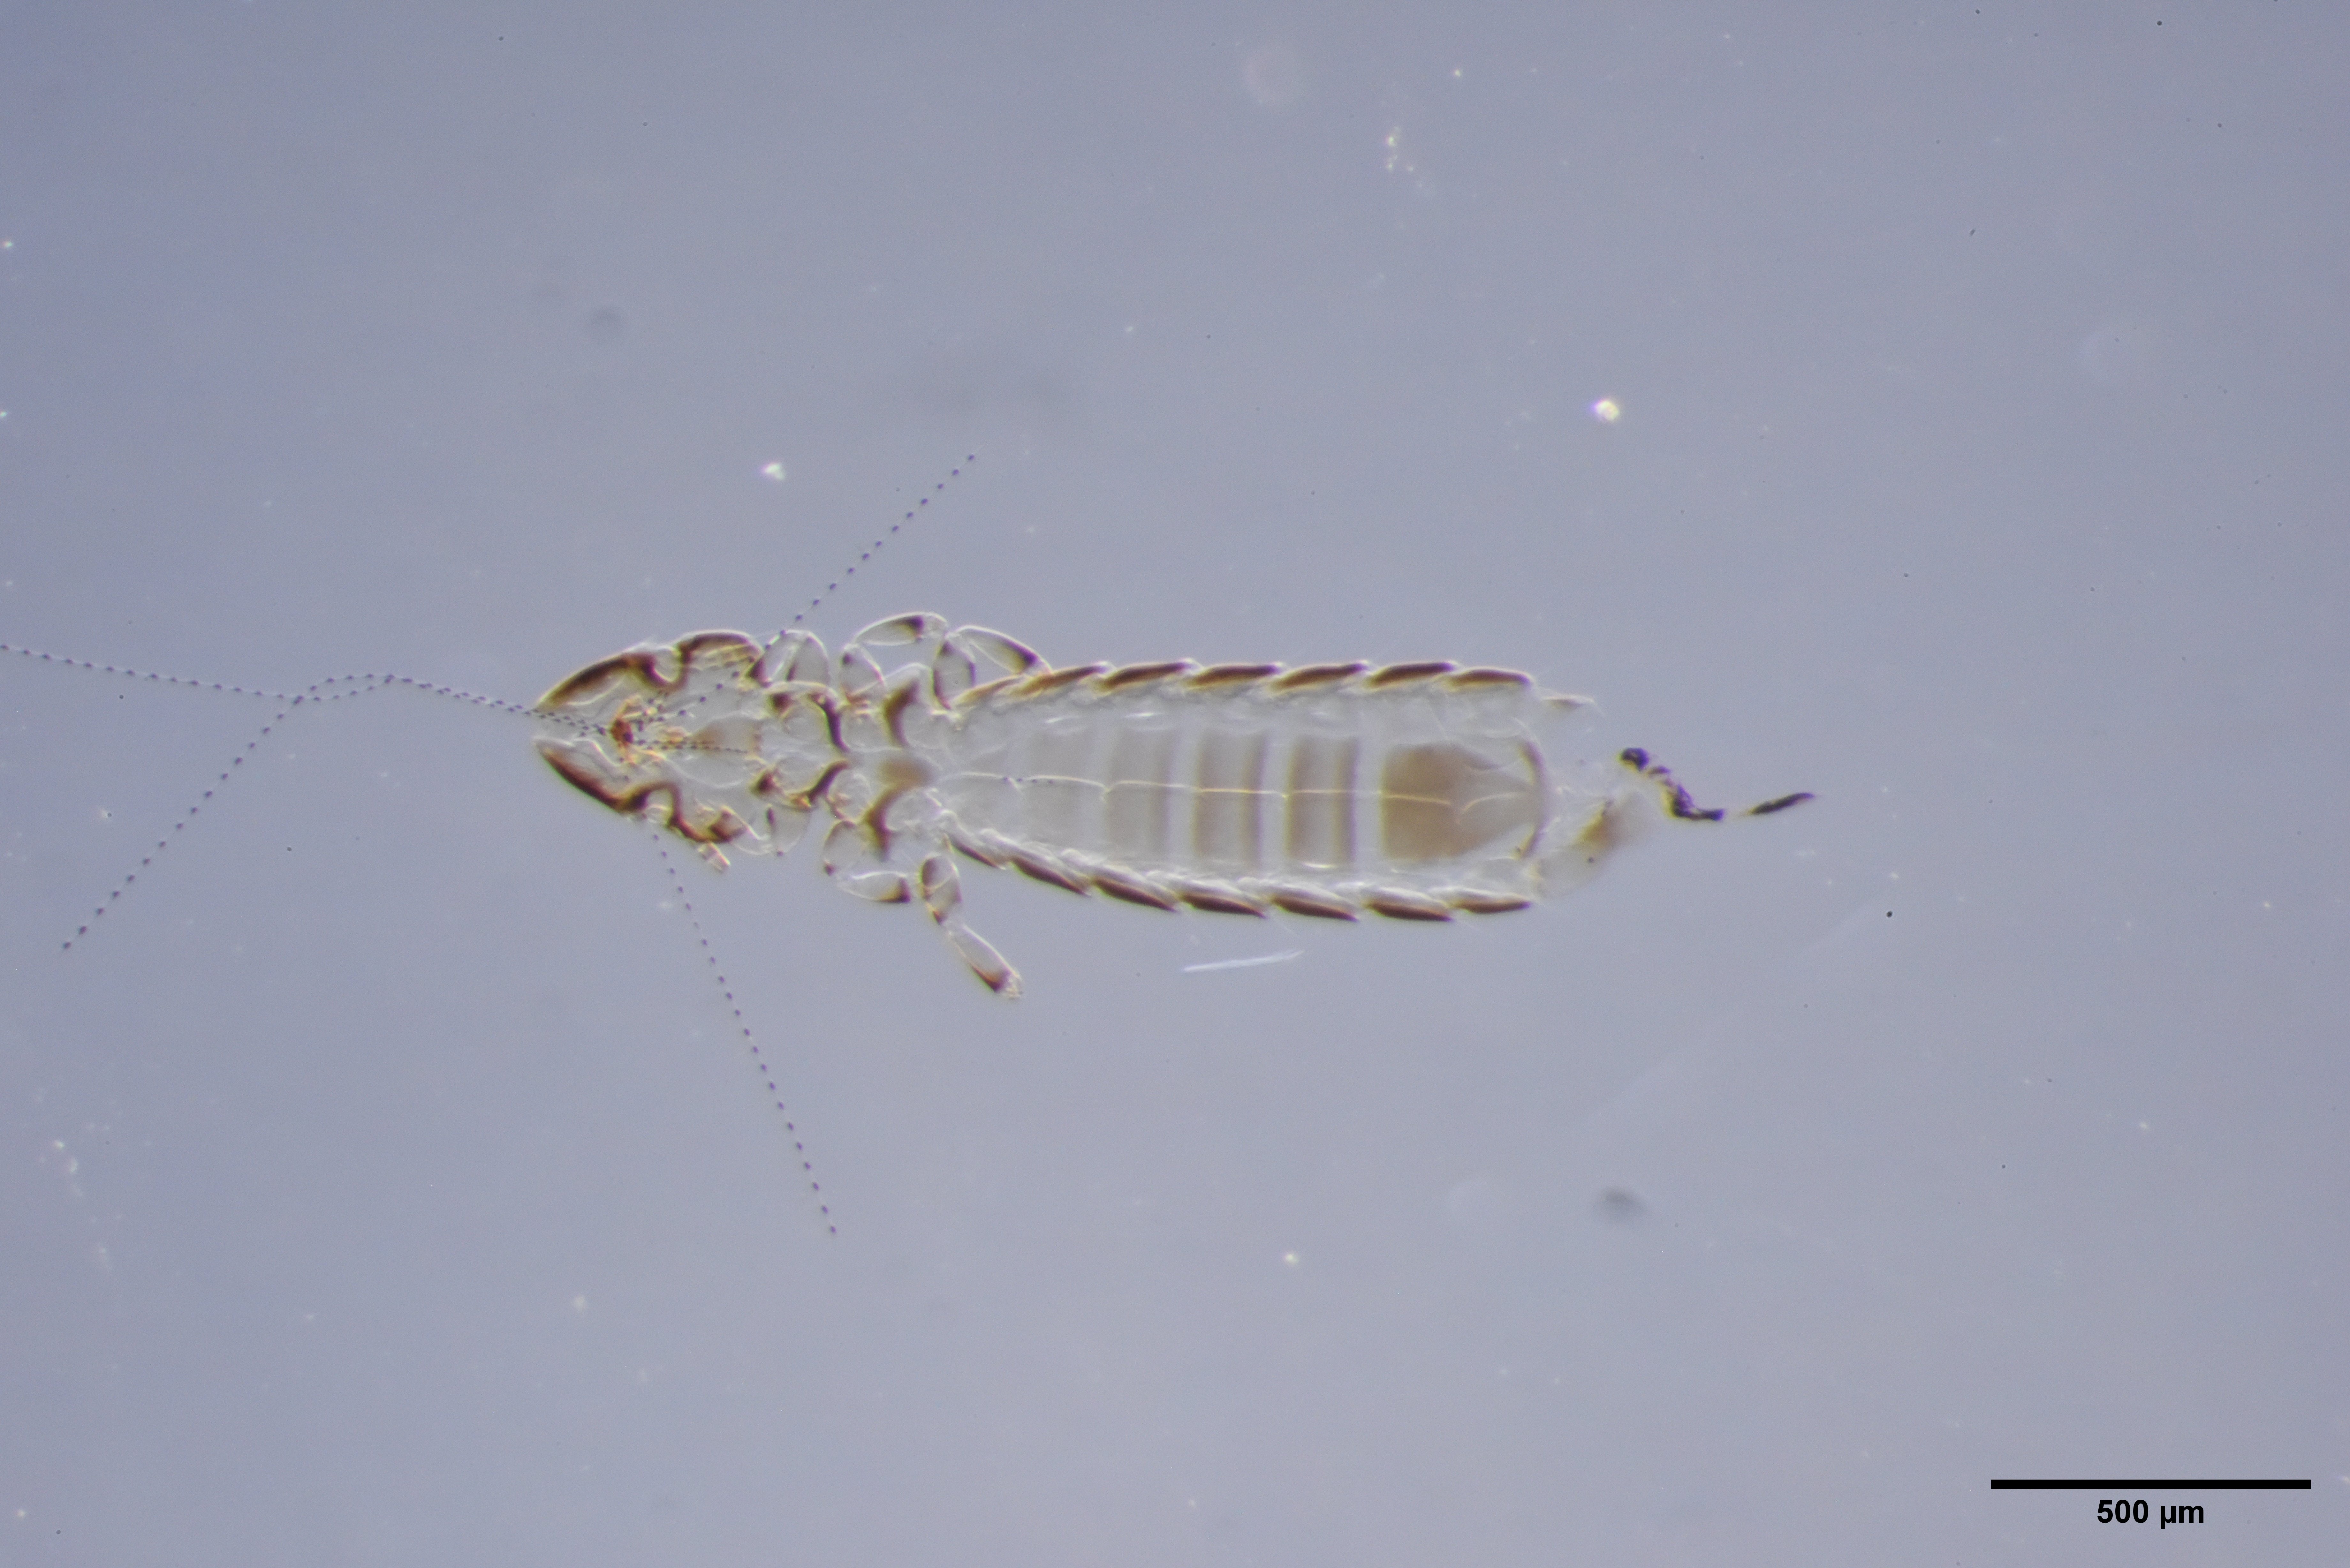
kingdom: Animalia
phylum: Arthropoda
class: Insecta
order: Psocodea
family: Philopteridae
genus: Brueelia
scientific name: Brueelia pyrrhularum
